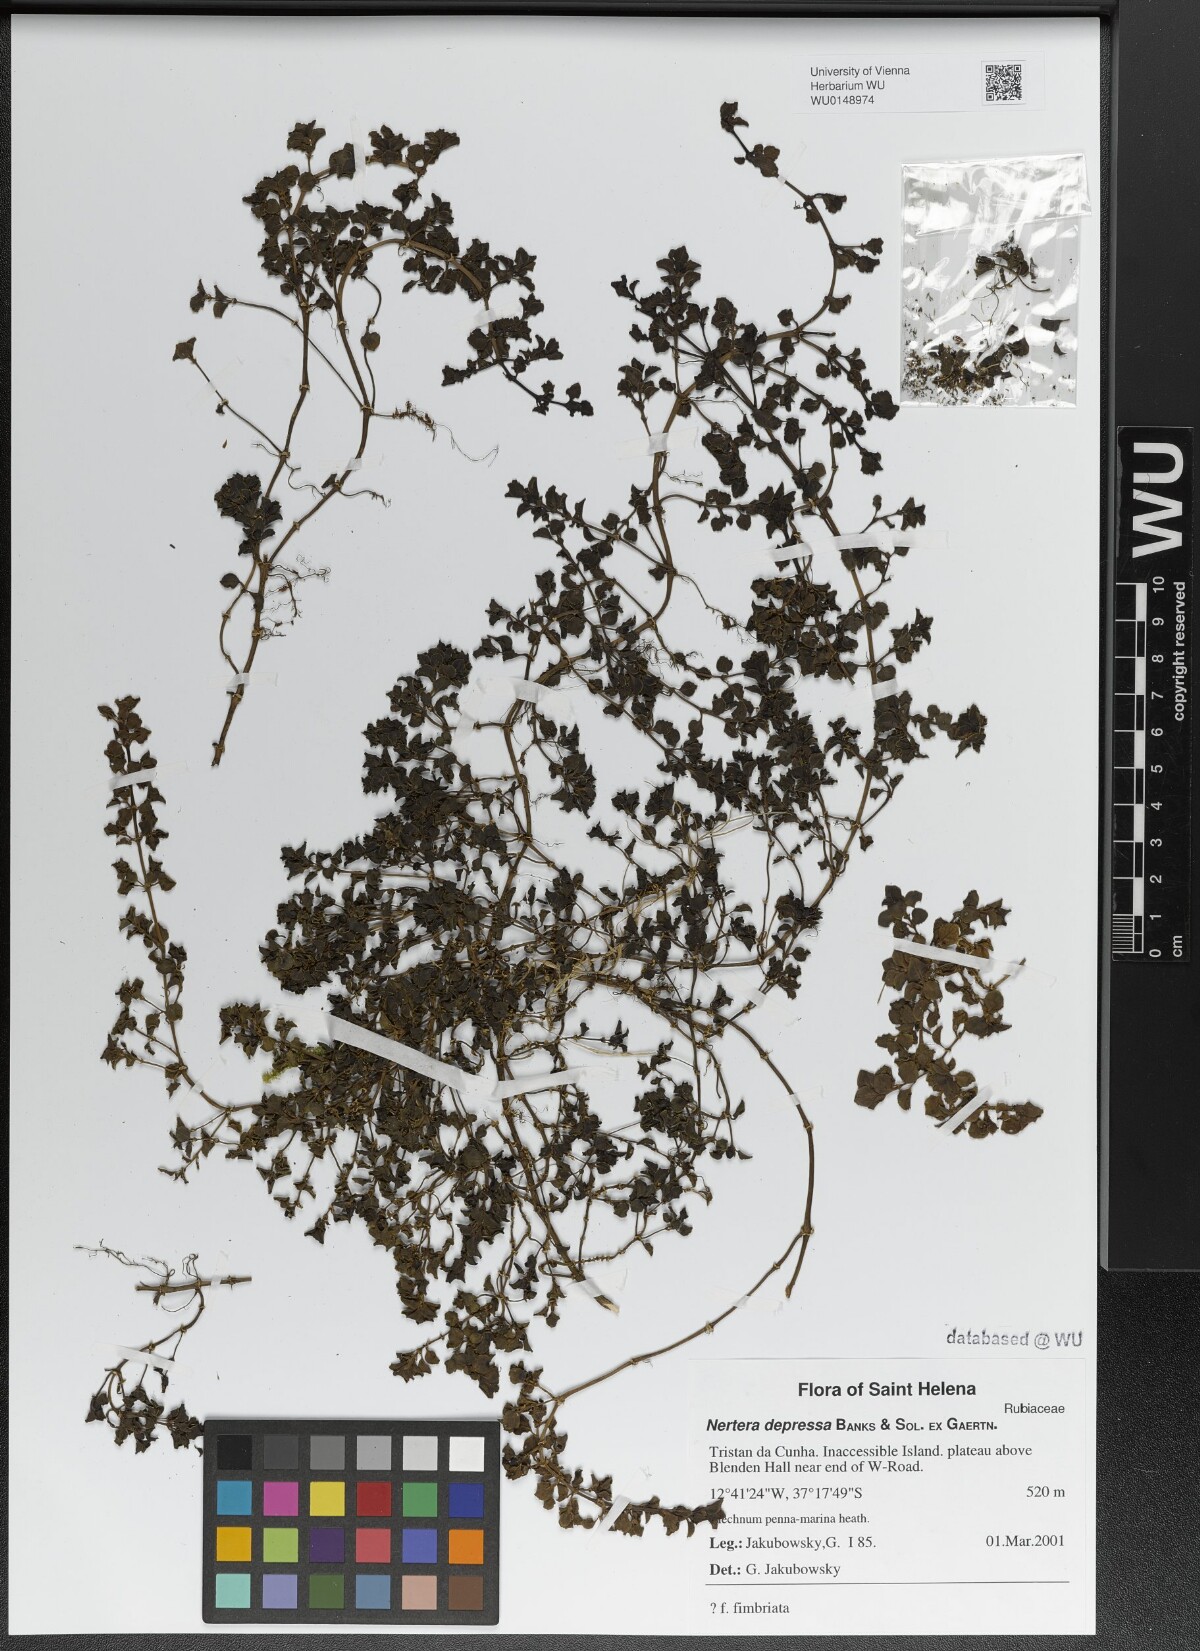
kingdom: Plantae
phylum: Tracheophyta
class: Magnoliopsida
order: Gentianales
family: Rubiaceae
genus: Nertera
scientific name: Nertera granadensis
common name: Beadplant
